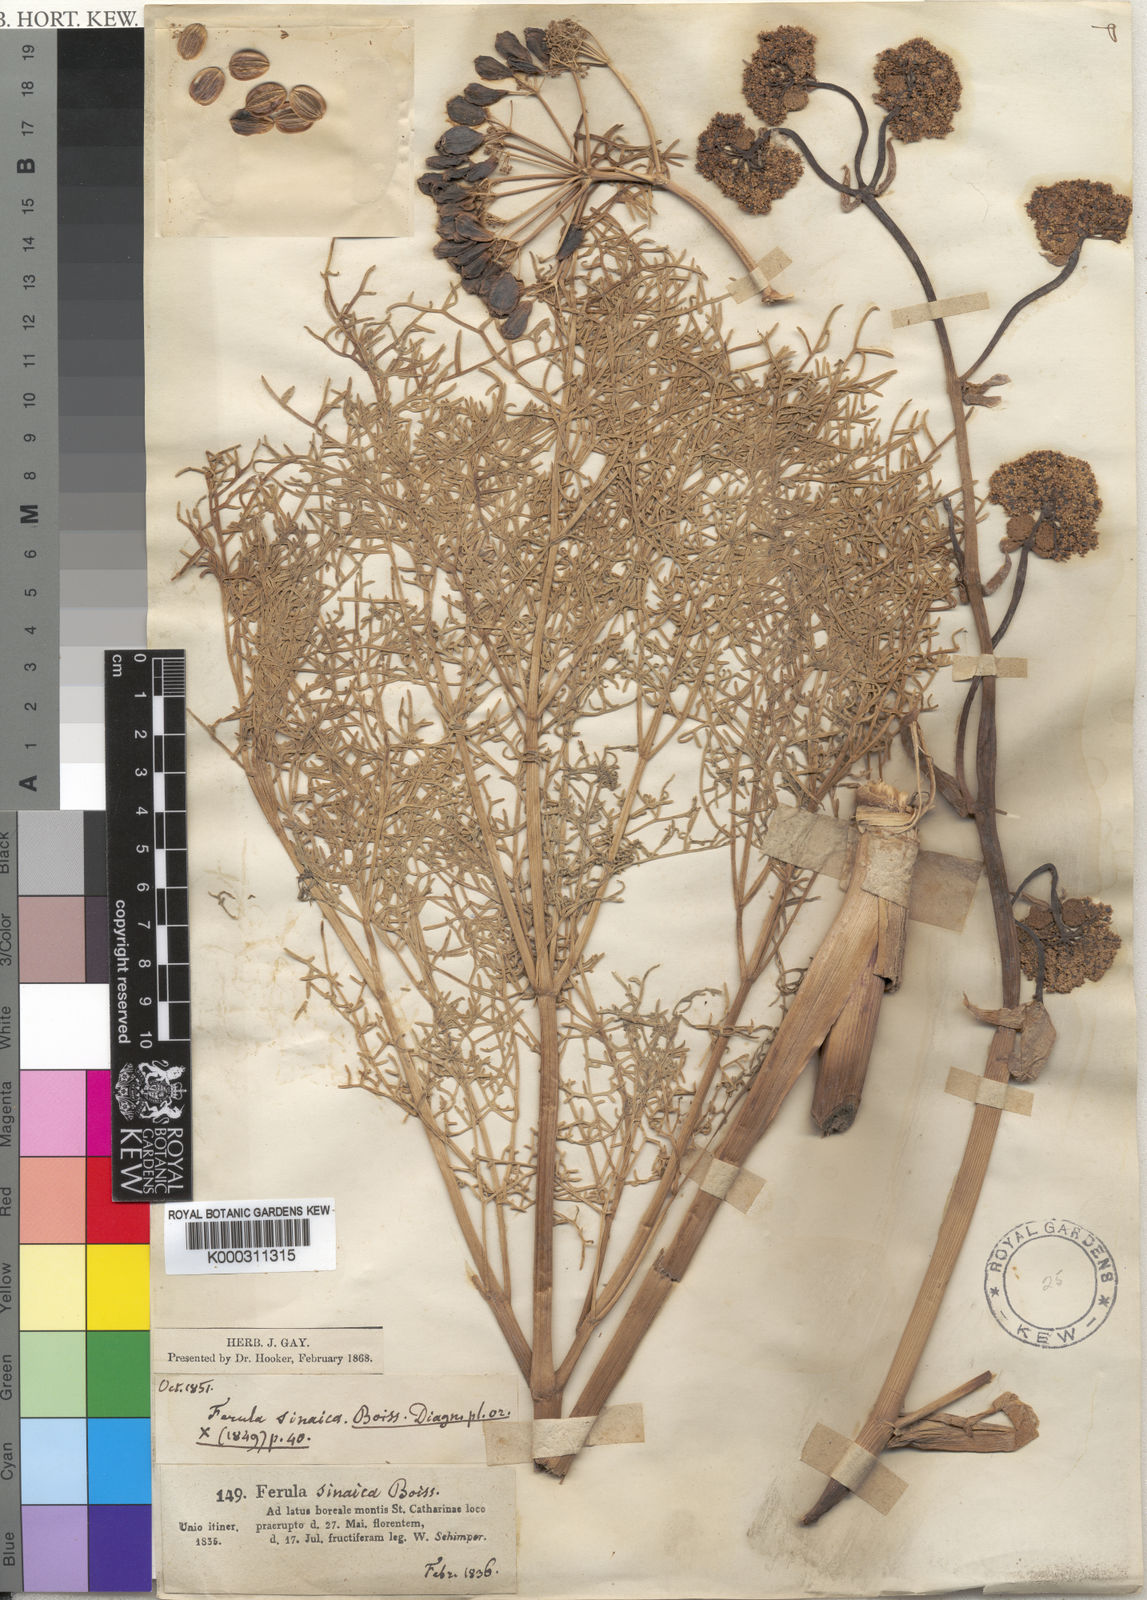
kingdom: Plantae
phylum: Tracheophyta
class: Magnoliopsida
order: Apiales
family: Apiaceae
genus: Ferula
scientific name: Ferula sinaica
